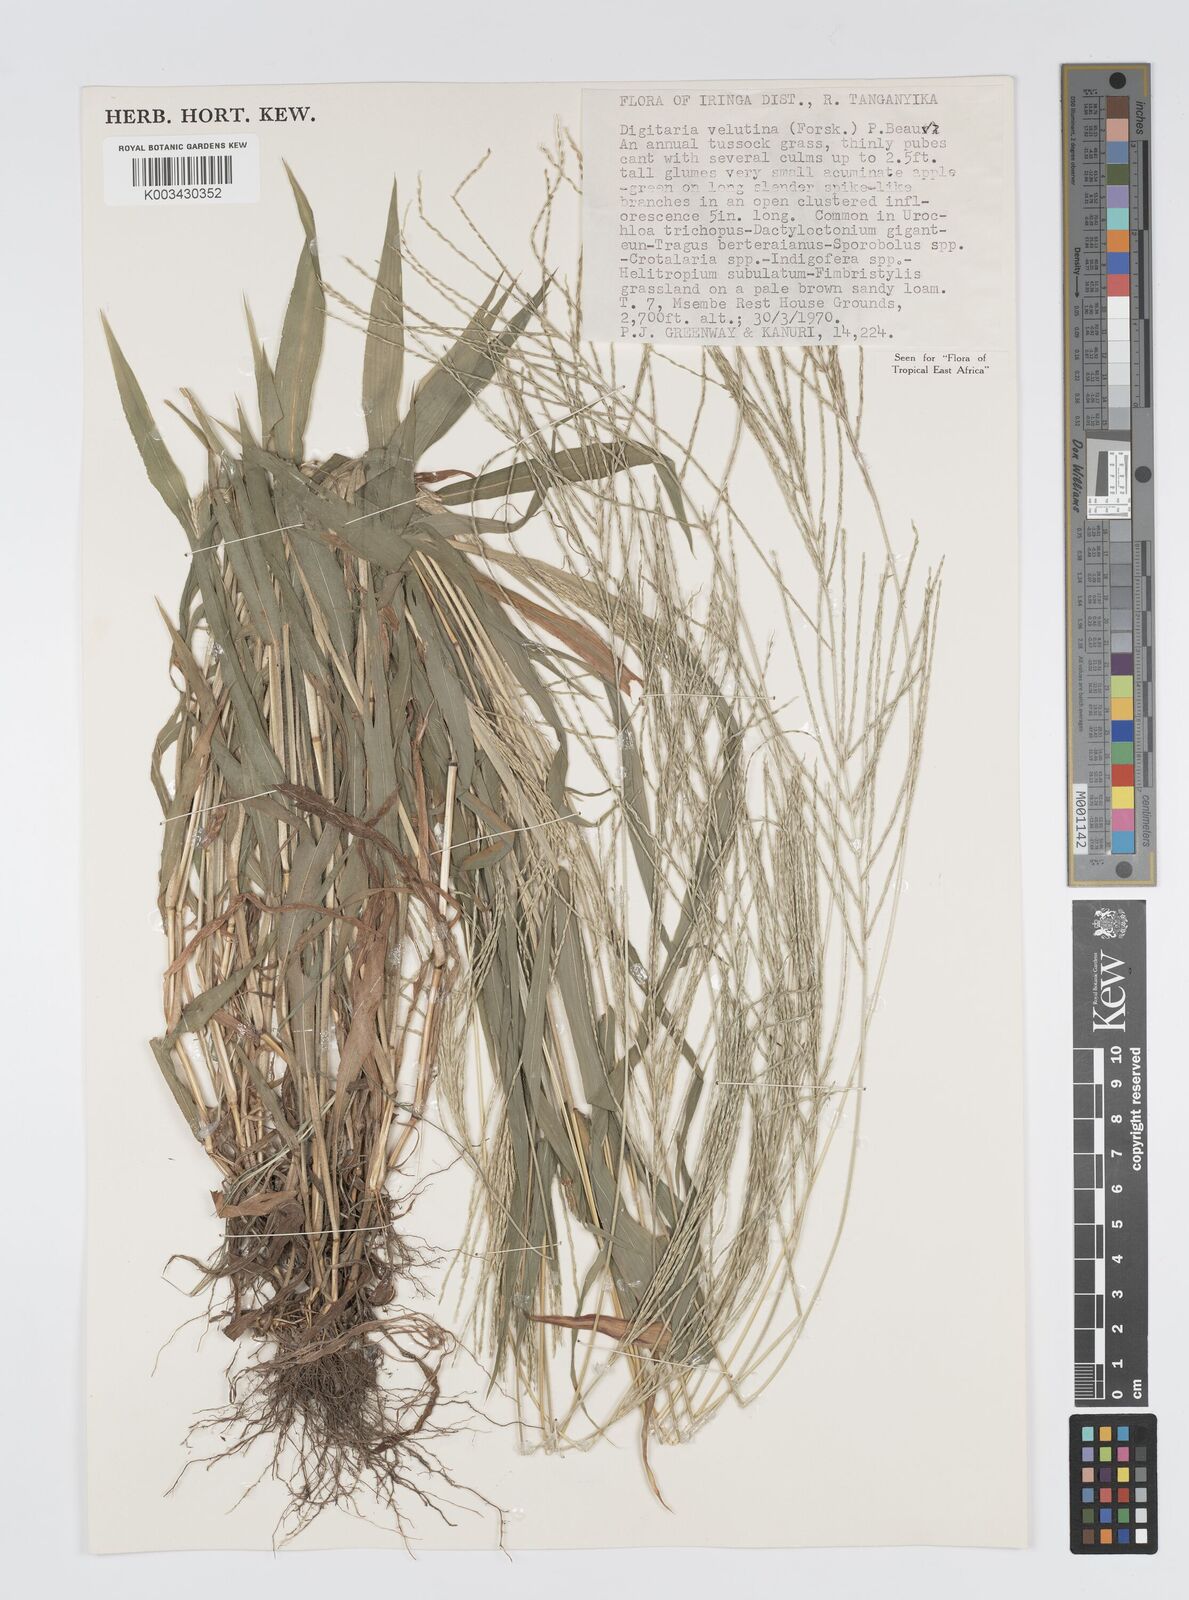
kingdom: Plantae
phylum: Tracheophyta
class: Liliopsida
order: Poales
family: Poaceae
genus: Digitaria
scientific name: Digitaria velutina
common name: Long-plume finger grass
